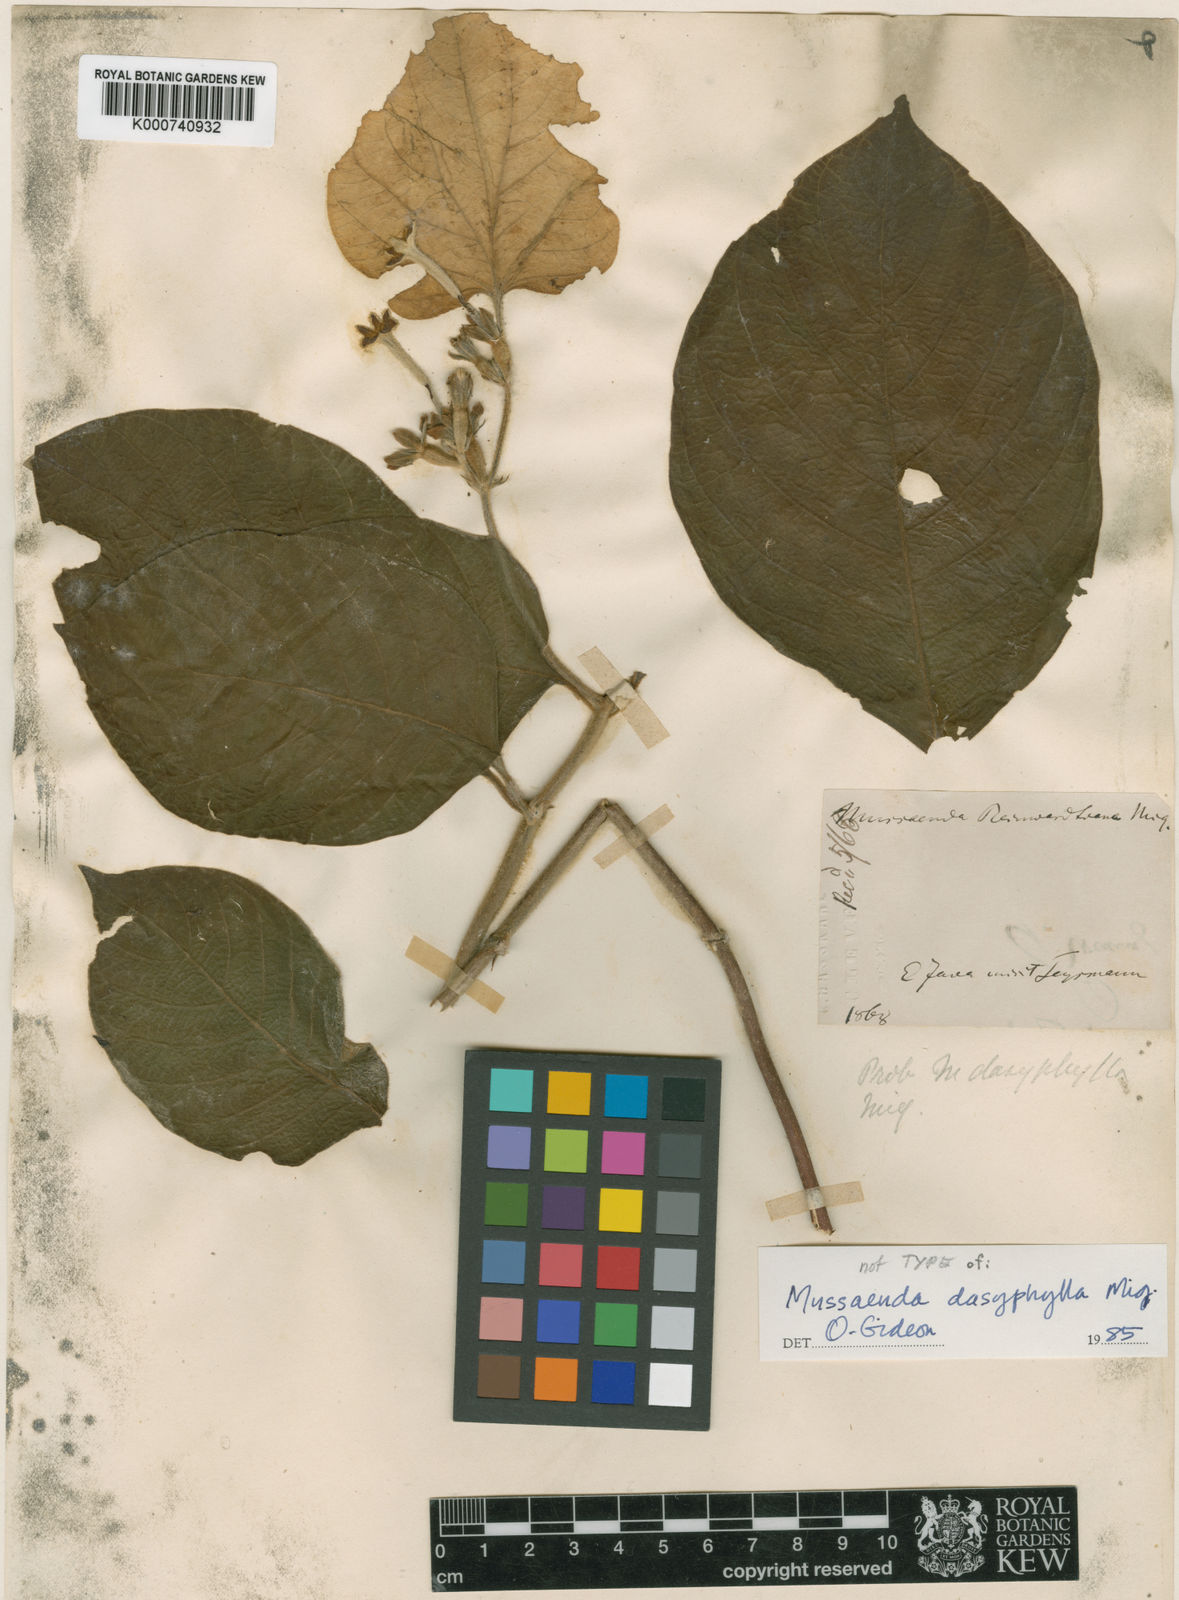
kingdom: Plantae
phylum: Tracheophyta
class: Magnoliopsida
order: Gentianales
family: Rubiaceae
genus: Mussaenda
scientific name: Mussaenda dasyphylla
